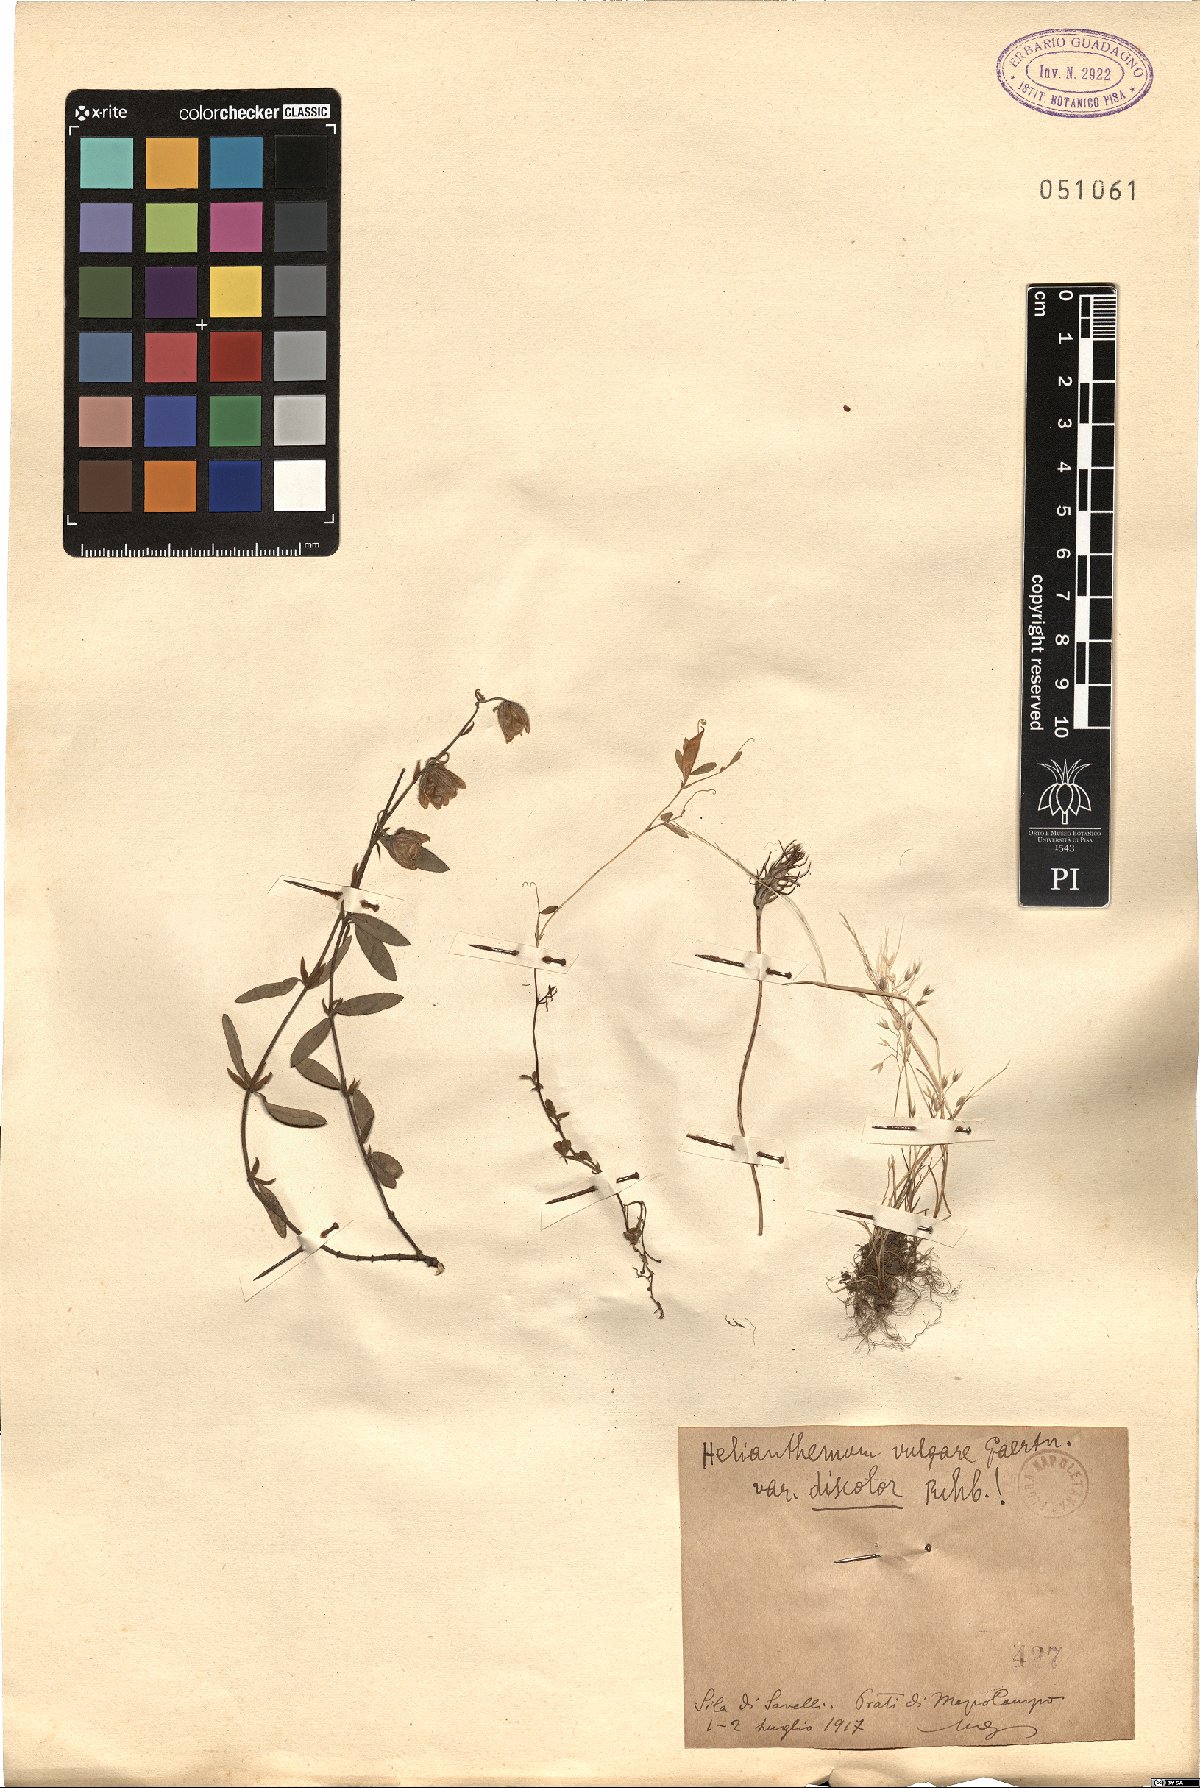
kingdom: Plantae
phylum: Tracheophyta
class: Magnoliopsida
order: Malvales
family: Cistaceae
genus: Helianthemum
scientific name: Helianthemum nummularium
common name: Common rock-rose
